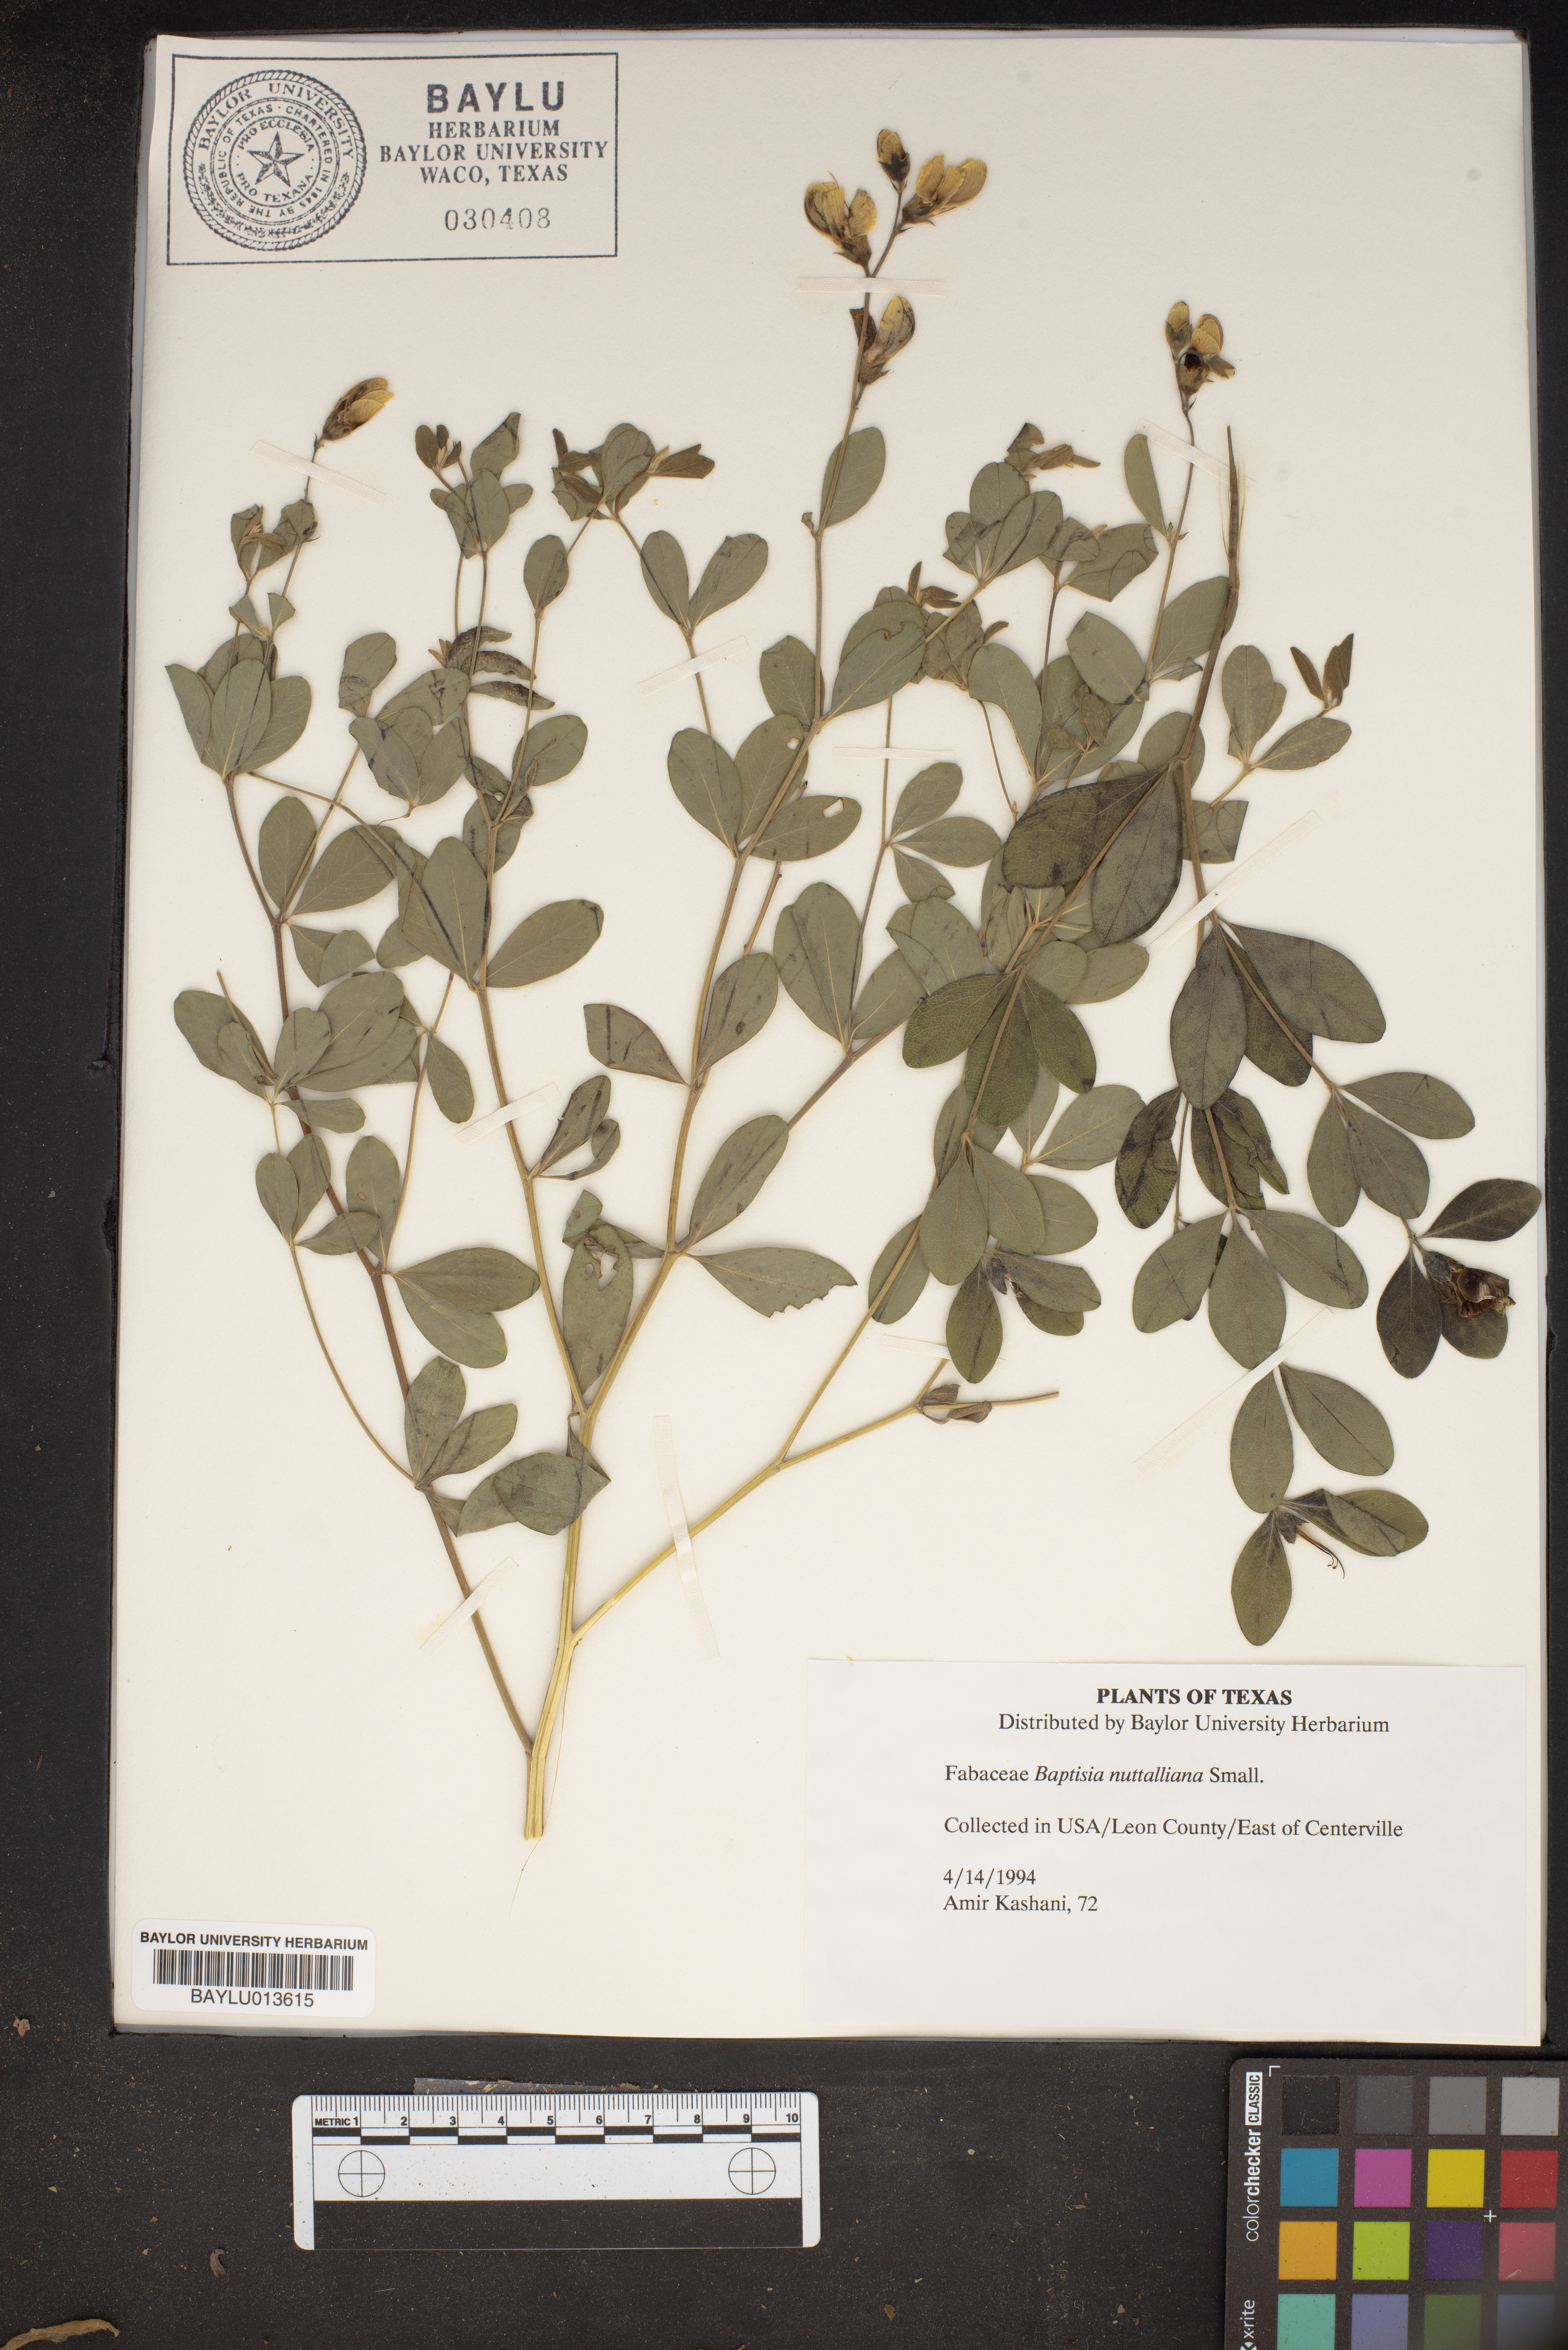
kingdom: Plantae
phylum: Tracheophyta
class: Magnoliopsida
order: Fabales
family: Fabaceae
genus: Baptisia
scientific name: Baptisia nuttalliana
